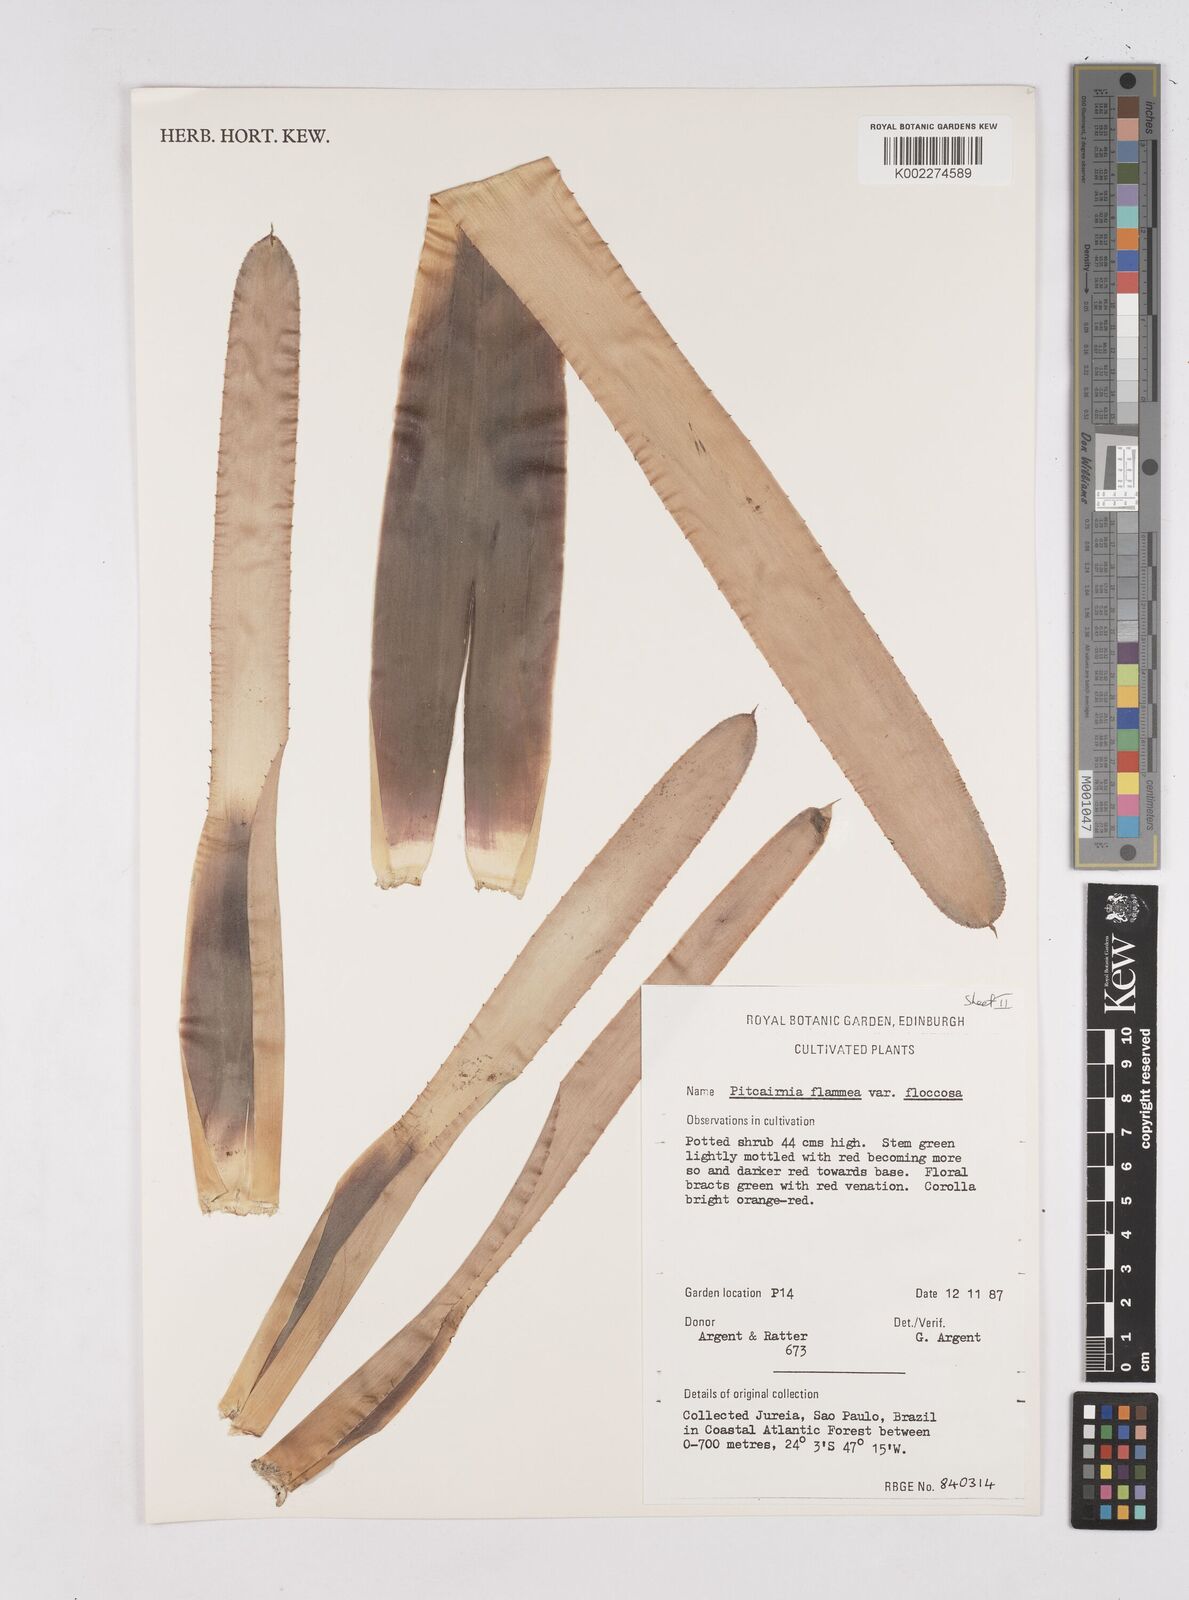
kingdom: Plantae
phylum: Tracheophyta
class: Liliopsida
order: Poales
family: Bromeliaceae
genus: Pitcairnia
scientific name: Pitcairnia flammea
